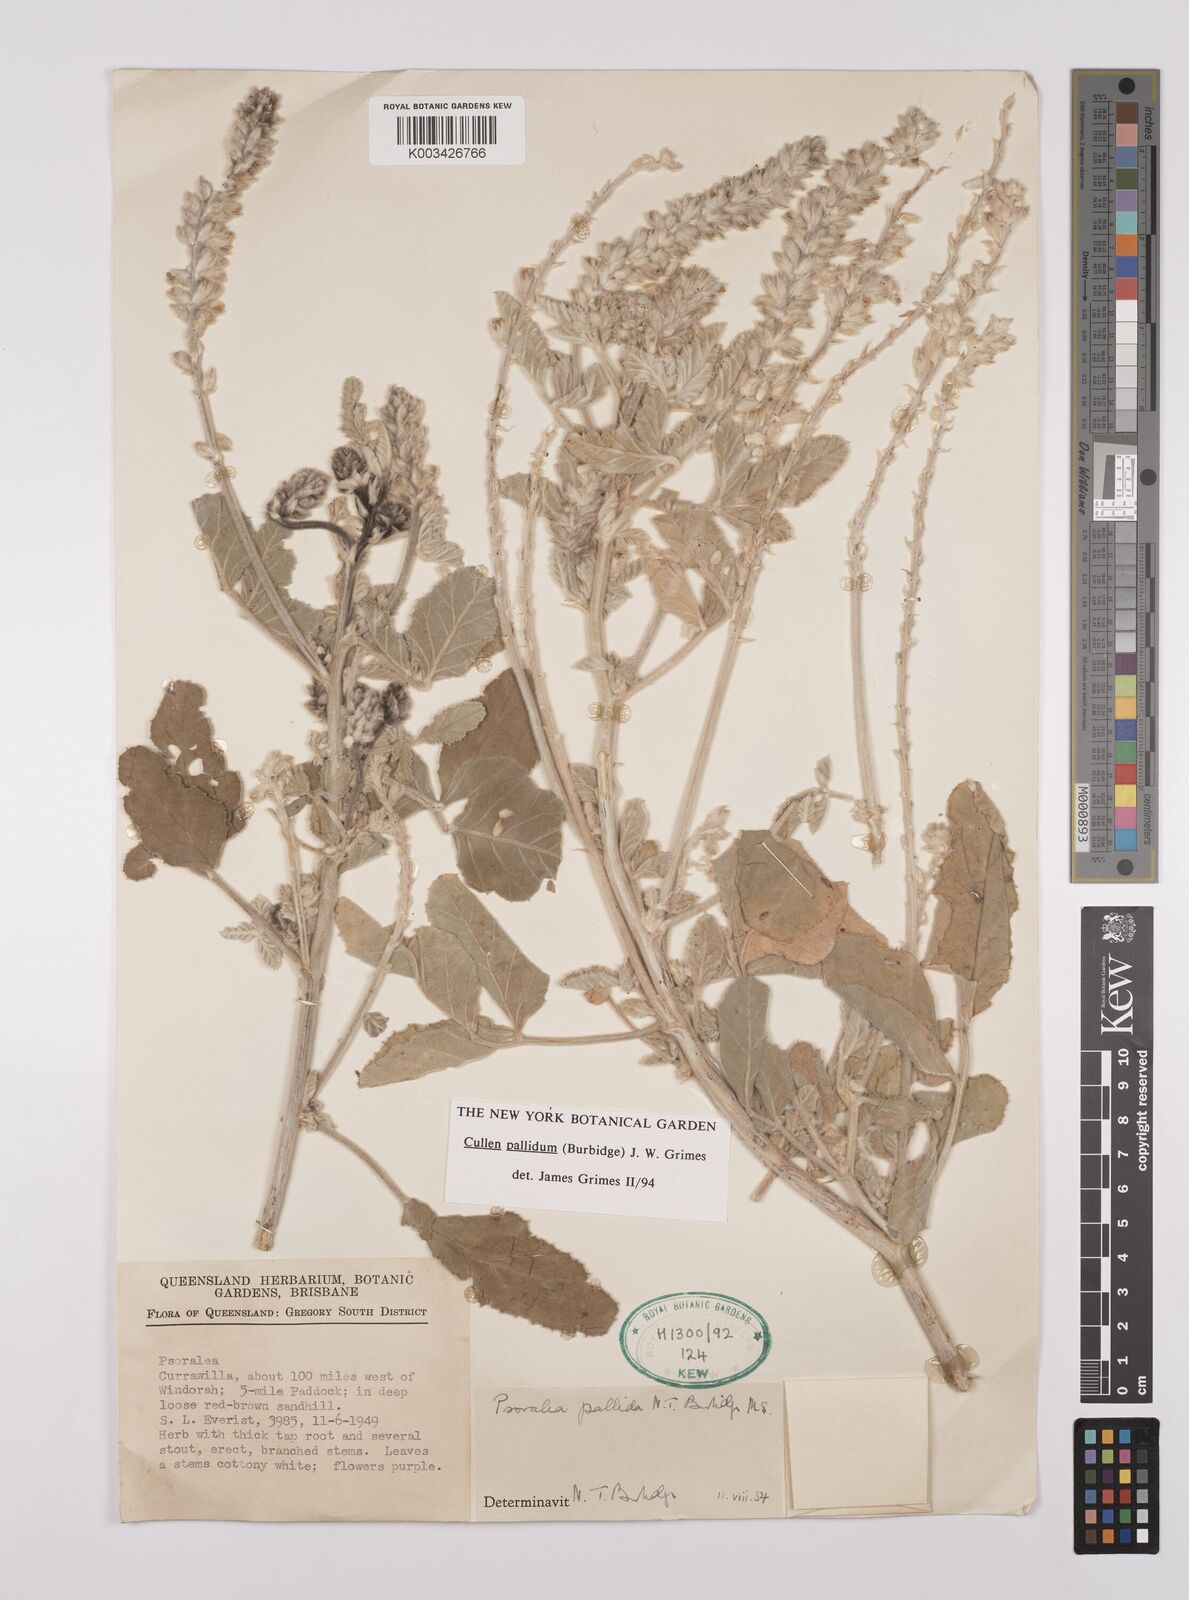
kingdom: Plantae
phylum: Tracheophyta
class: Magnoliopsida
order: Fabales
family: Fabaceae
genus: Cullen
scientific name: Cullen pallidum
